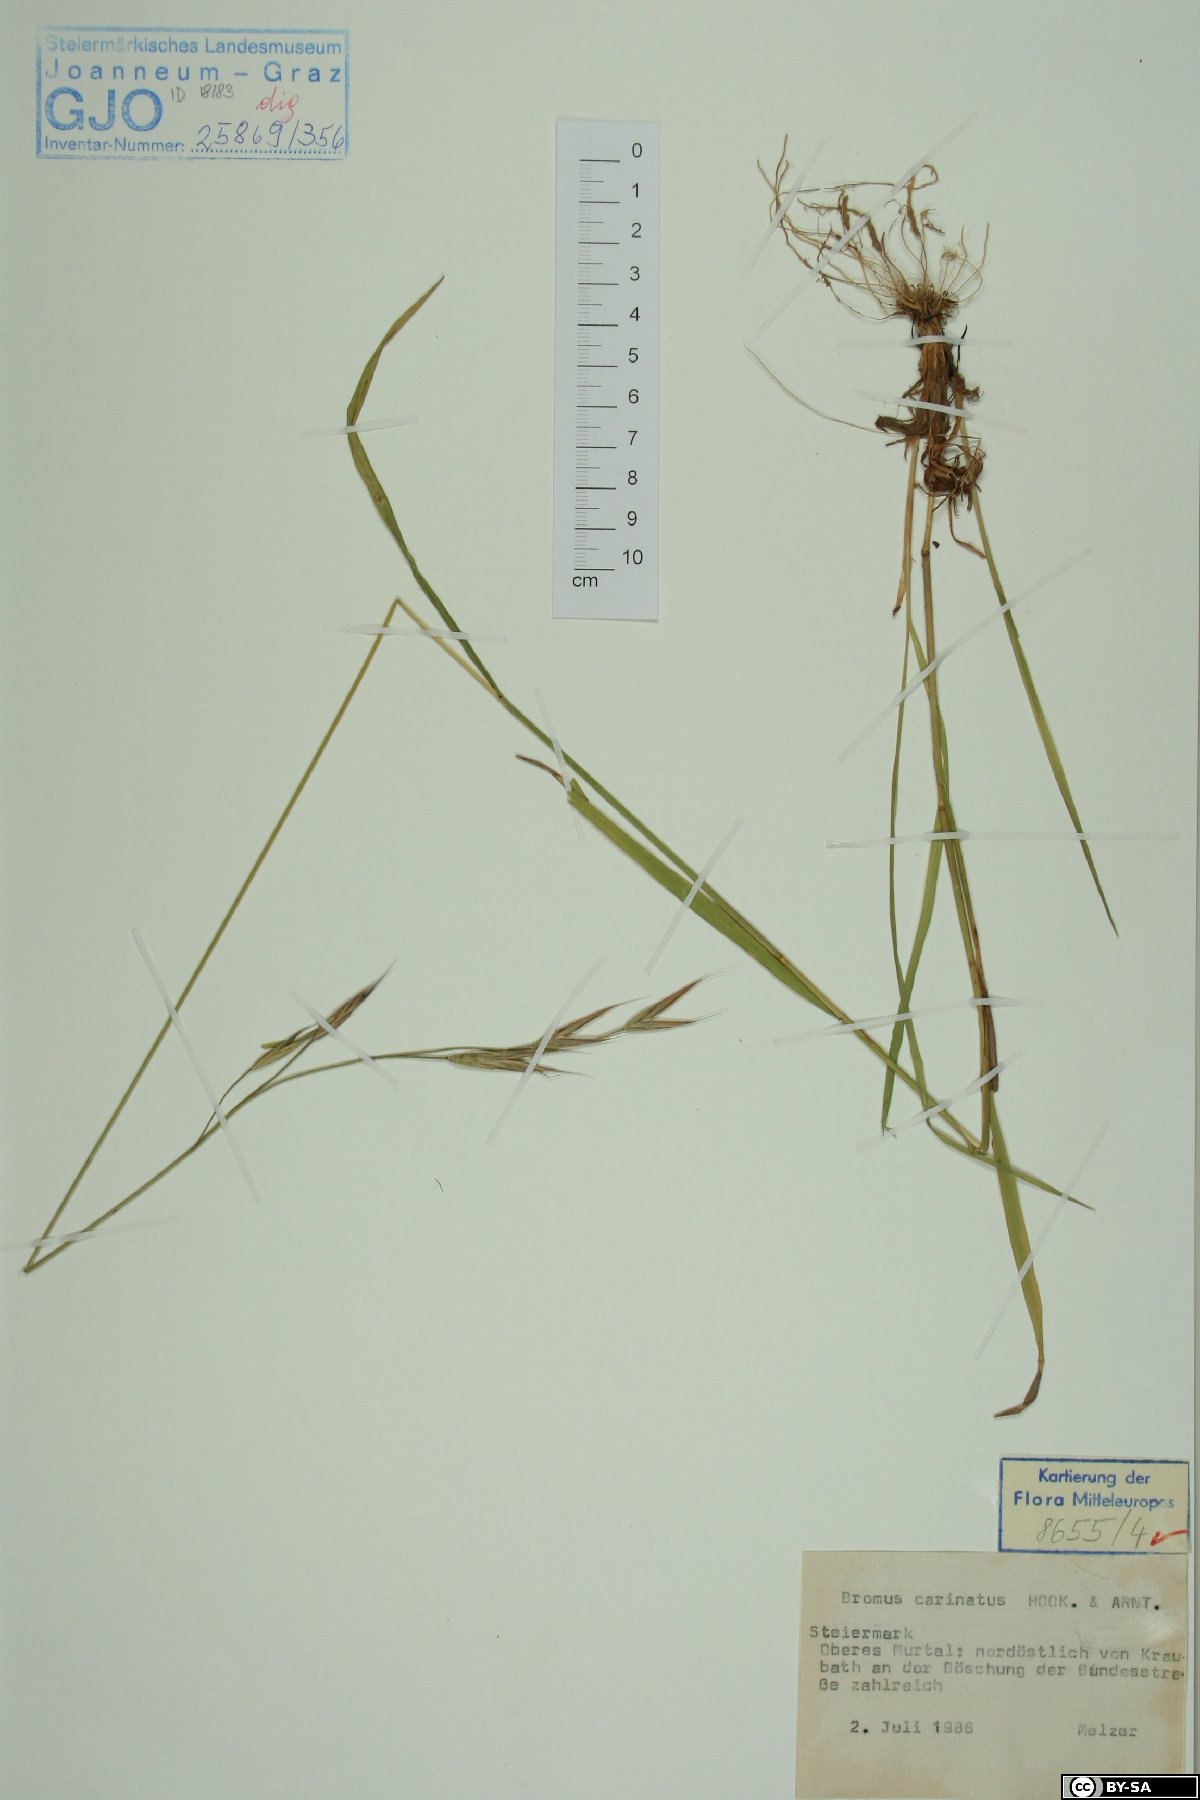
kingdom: Plantae
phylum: Tracheophyta
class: Liliopsida
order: Poales
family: Poaceae
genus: Bromus
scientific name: Bromus carinatus
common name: Mountain brome
